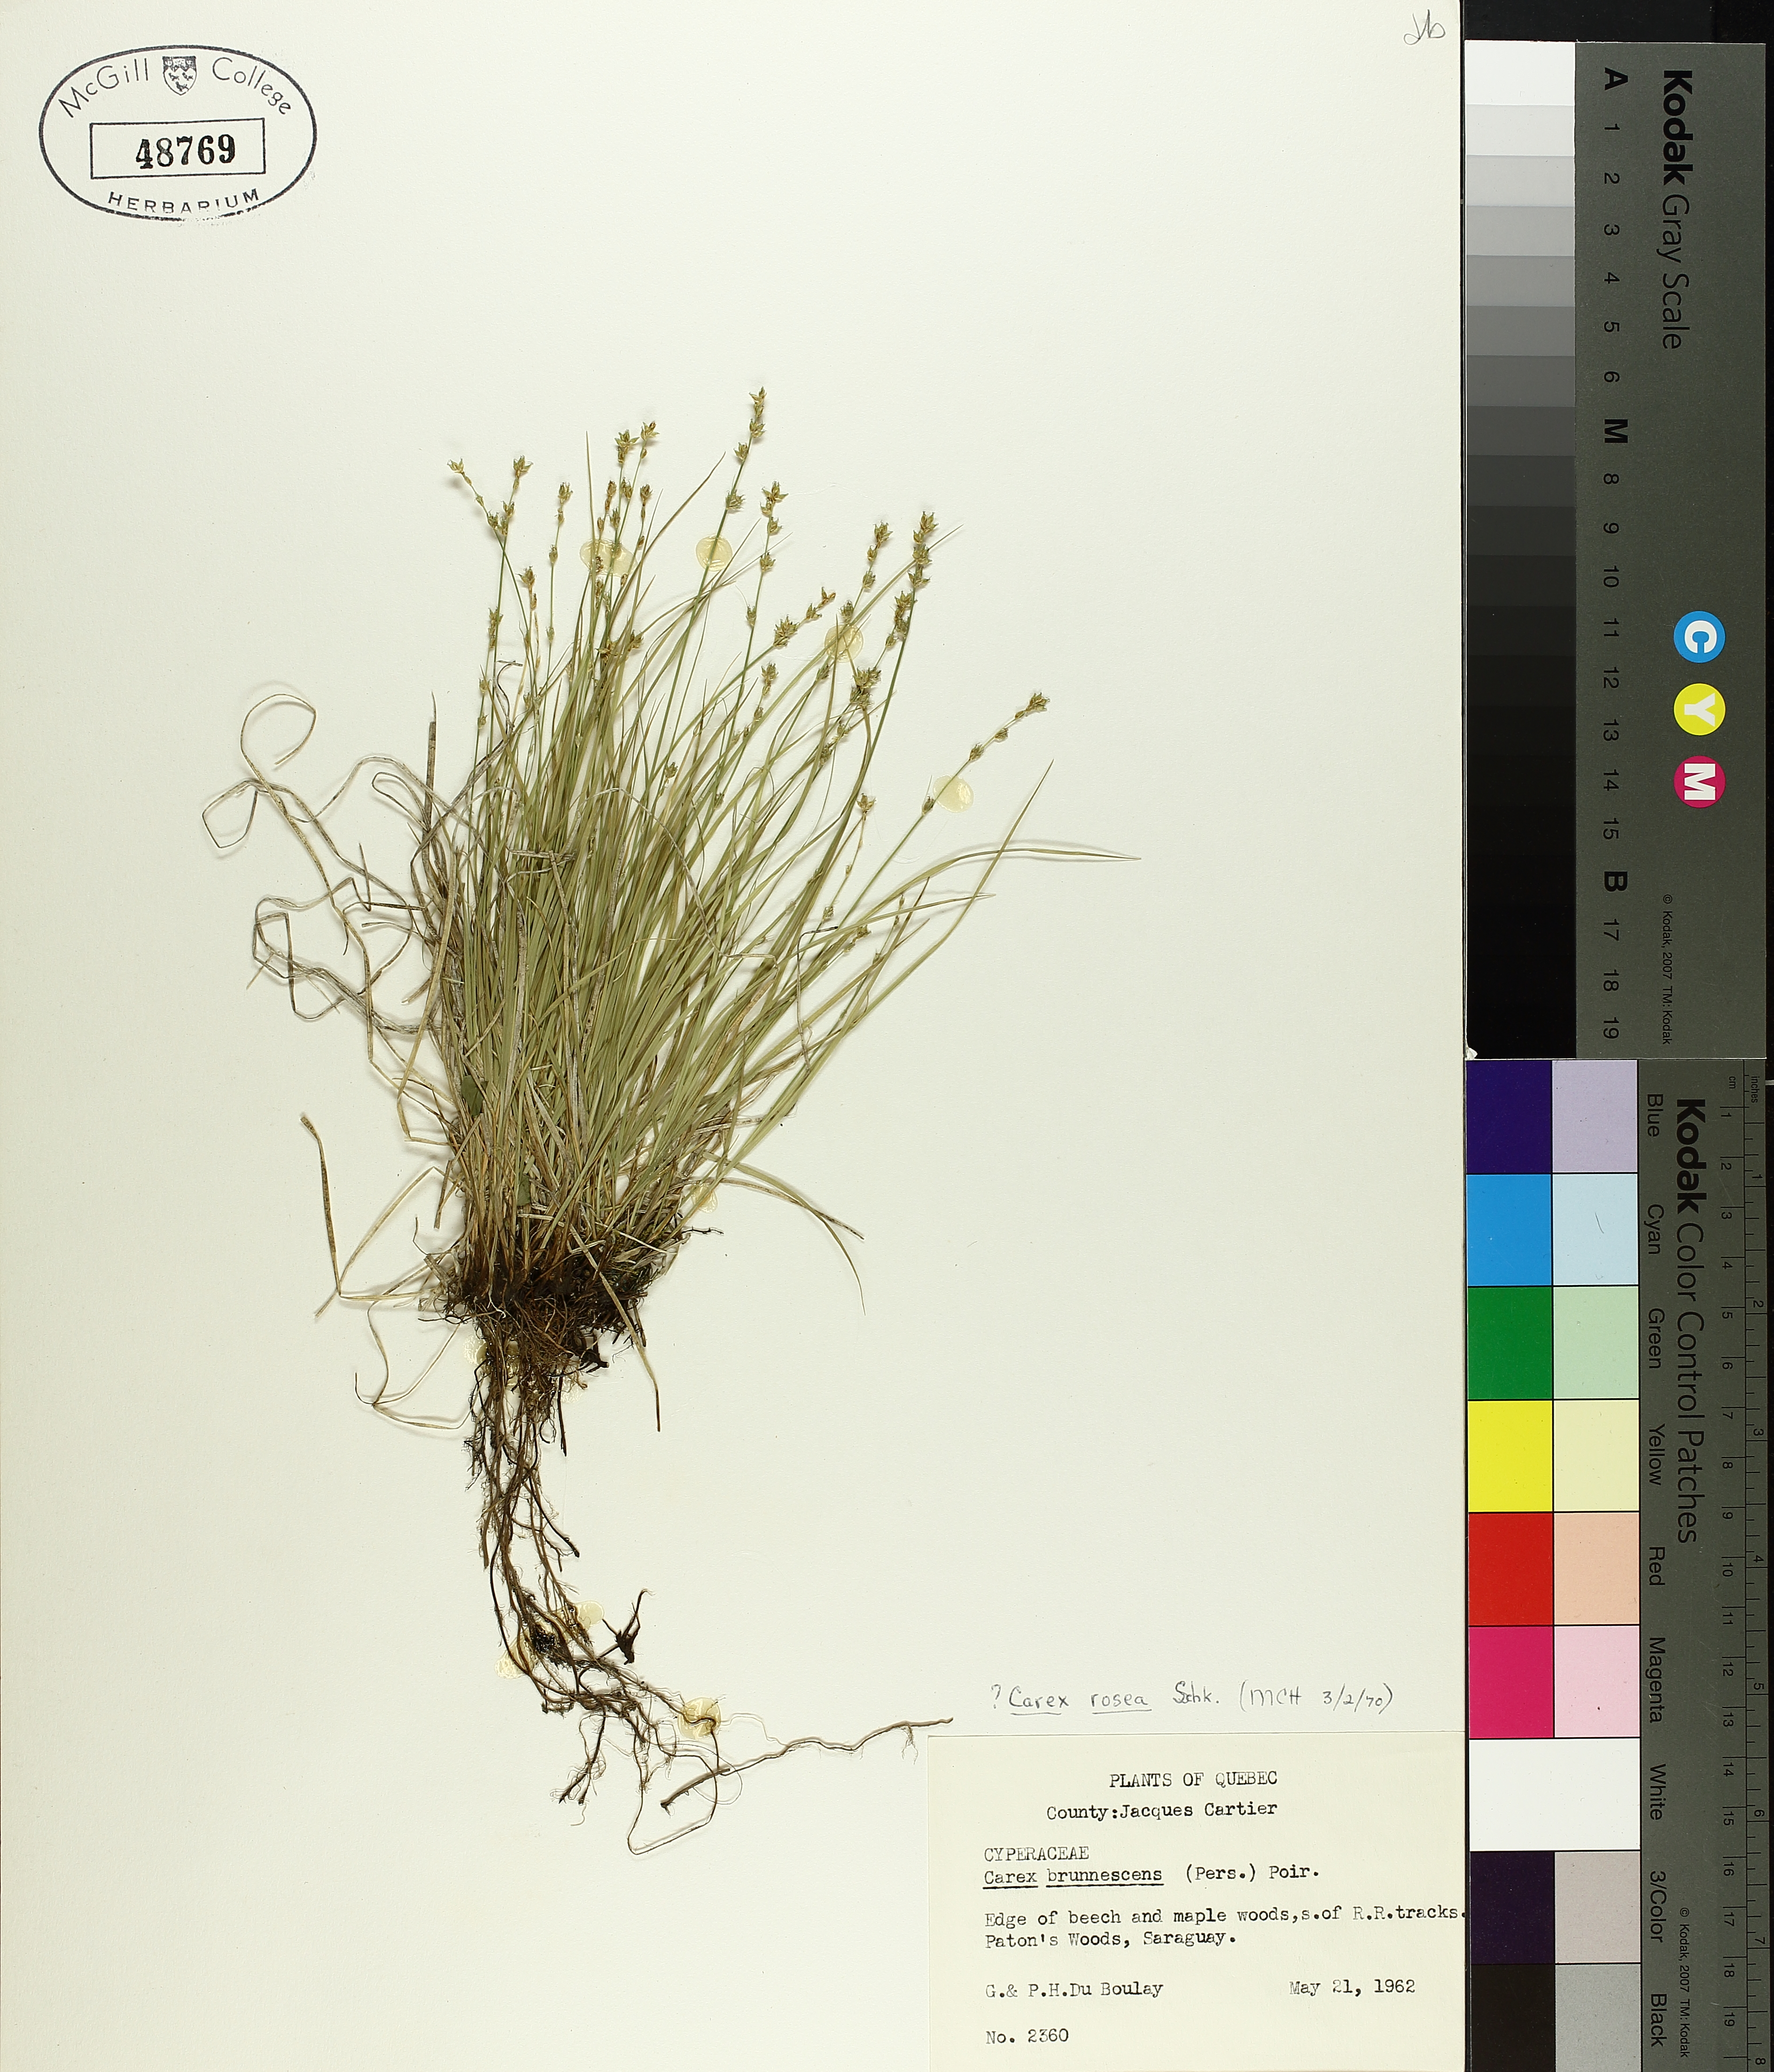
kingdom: Plantae
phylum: Tracheophyta
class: Liliopsida
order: Poales
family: Cyperaceae
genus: Carex
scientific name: Carex rosea
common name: Curly-styled wood sedge
